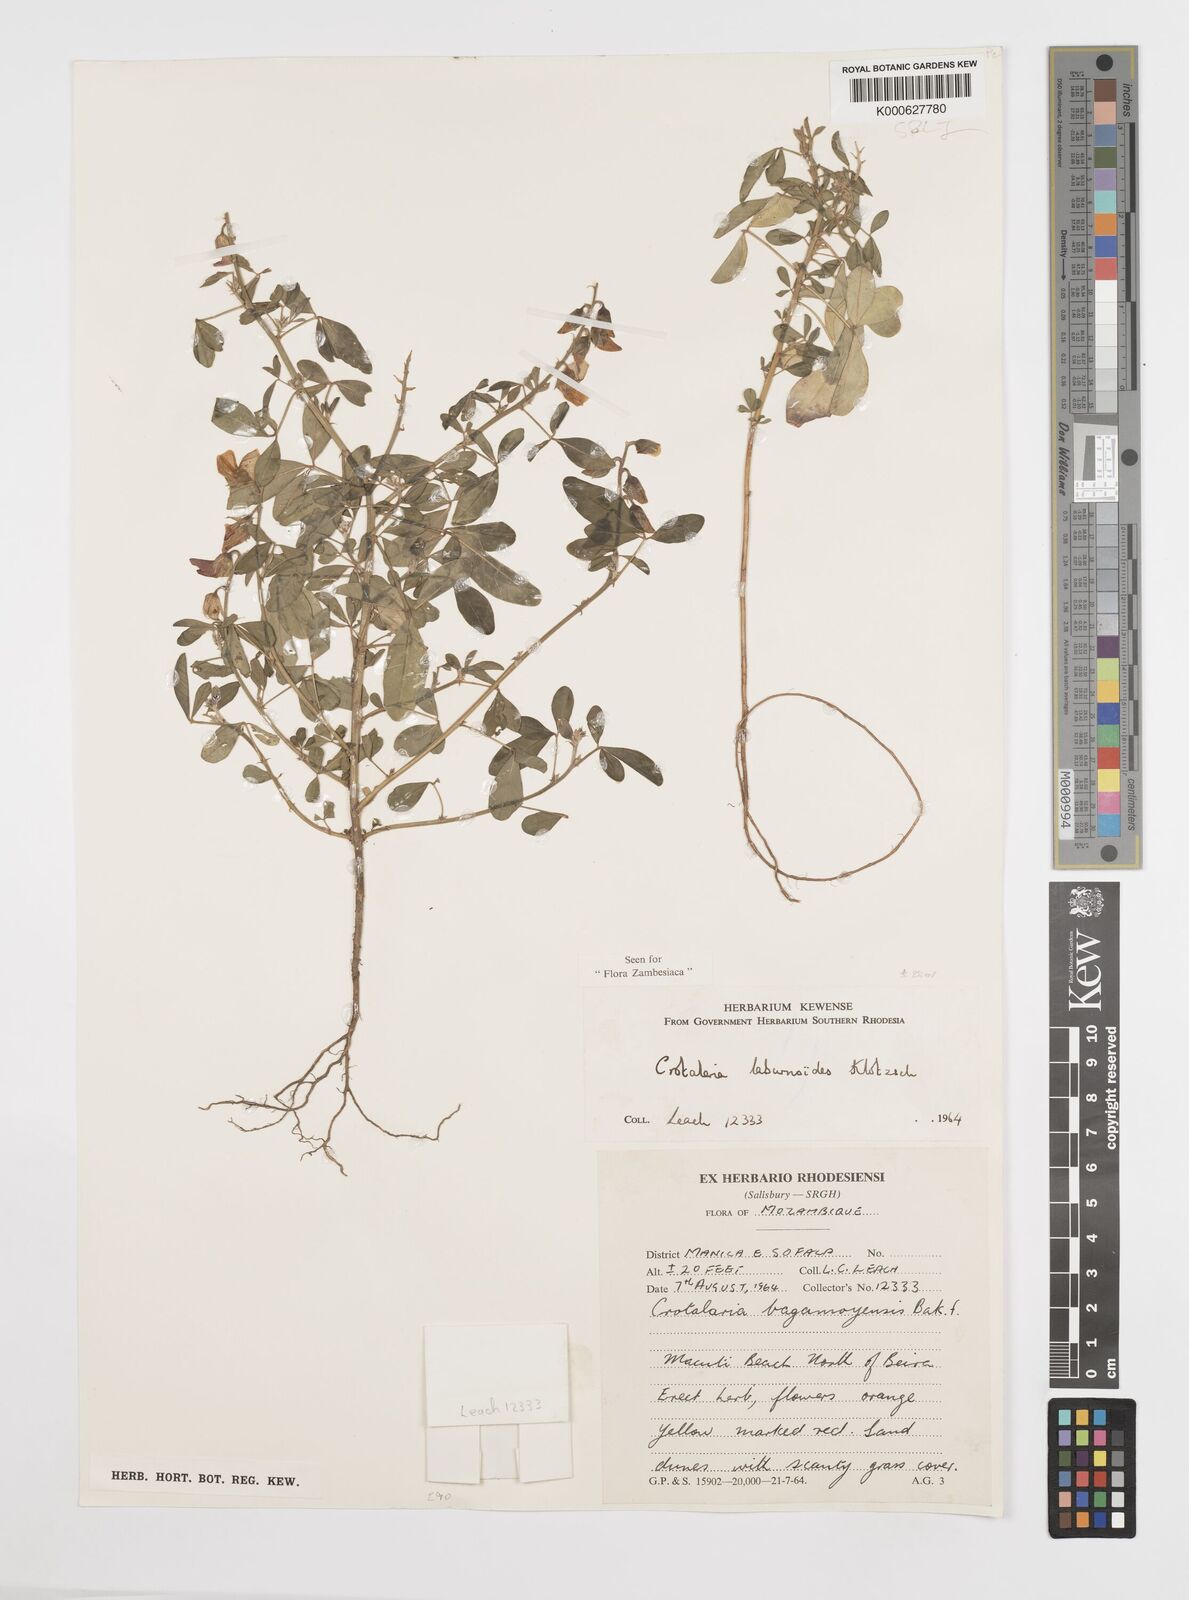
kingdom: Plantae
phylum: Tracheophyta
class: Magnoliopsida
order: Fabales
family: Fabaceae
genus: Crotalaria
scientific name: Crotalaria laburnoides
